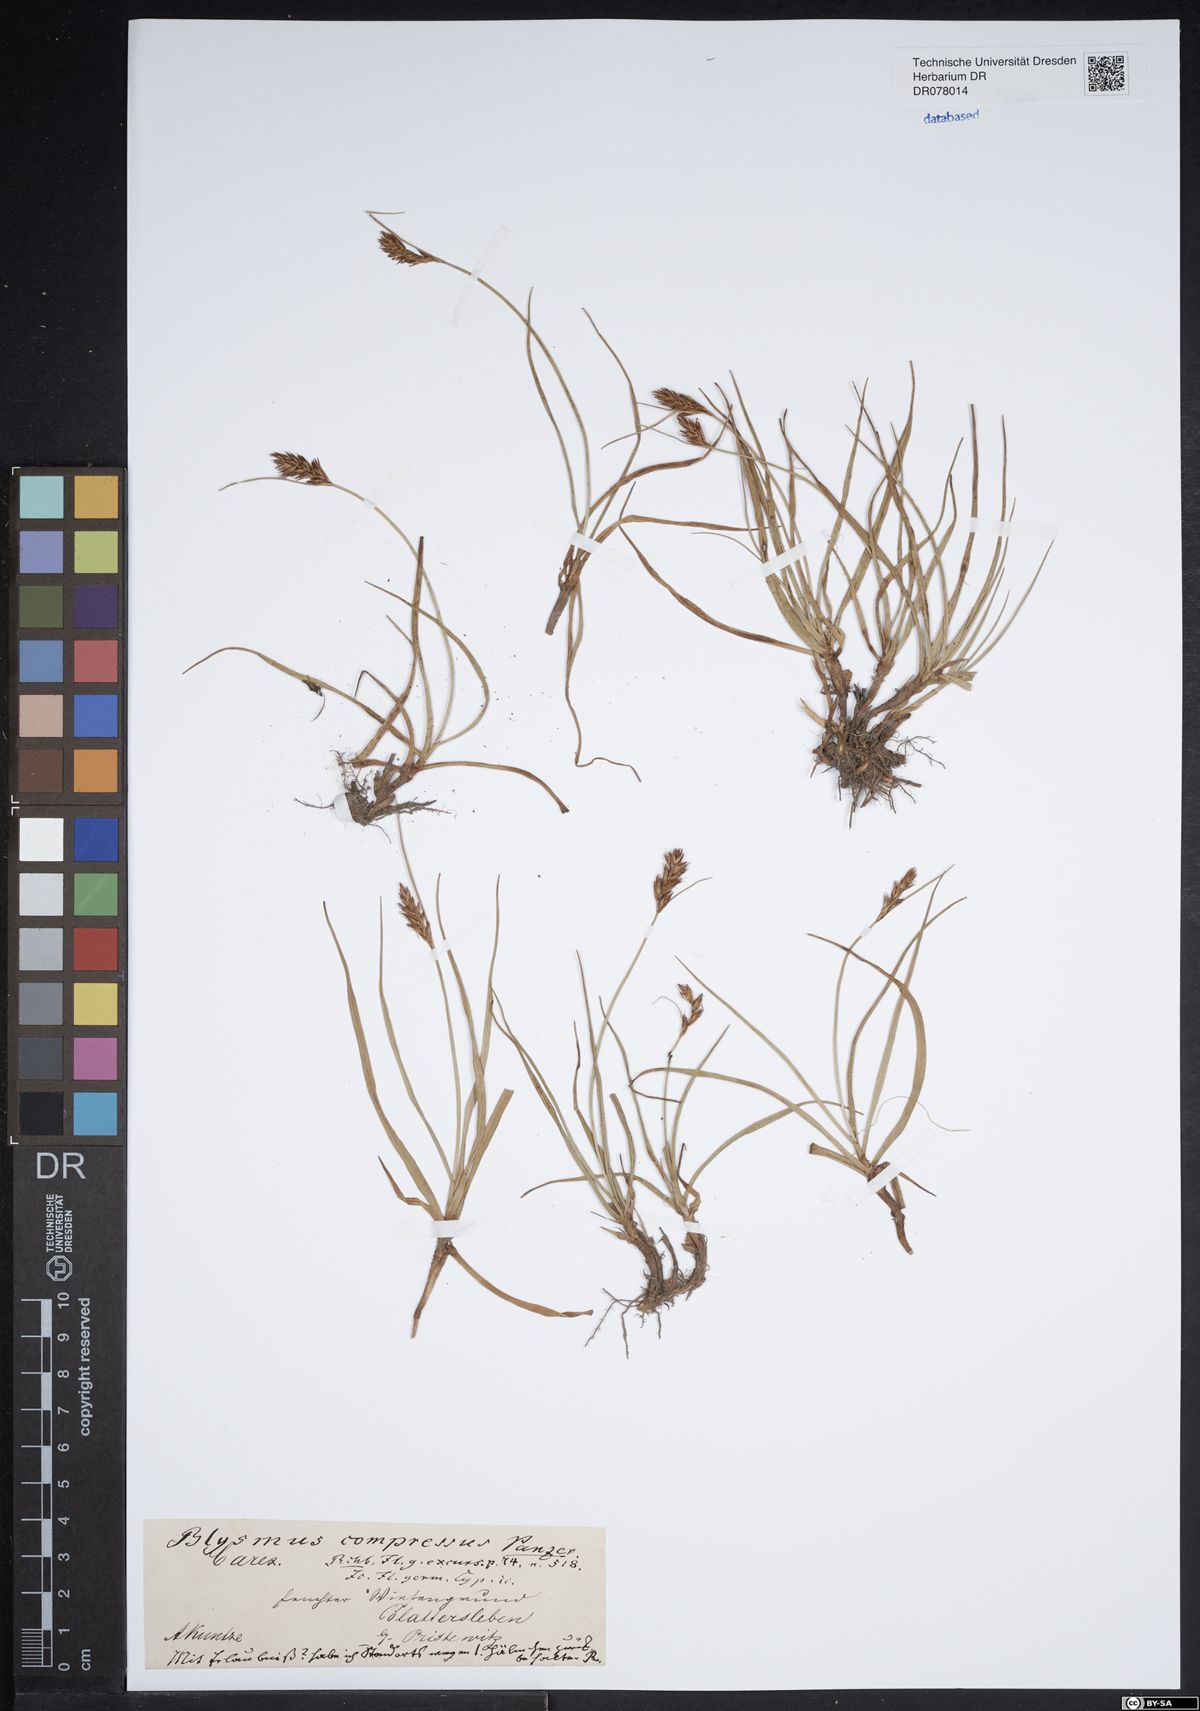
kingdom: Plantae
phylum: Tracheophyta
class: Liliopsida
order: Poales
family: Cyperaceae
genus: Blysmus
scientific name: Blysmus compressus
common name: Flat-sedge
